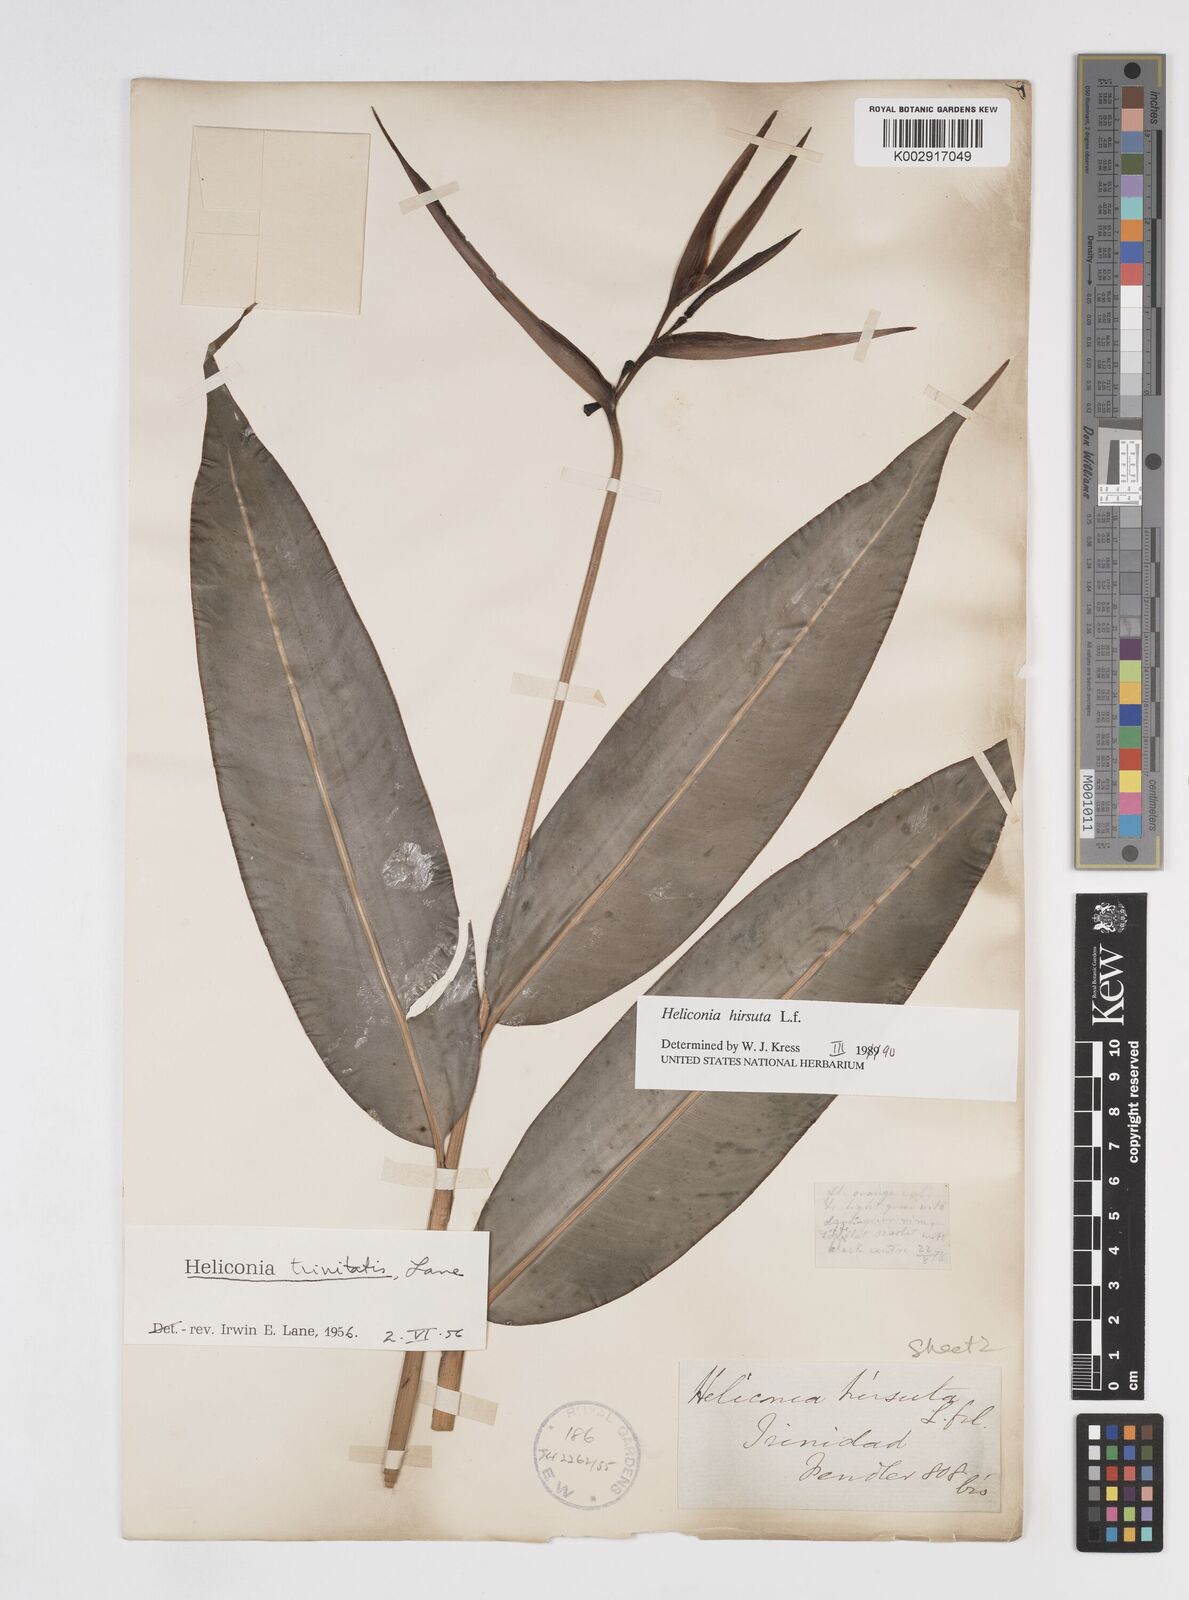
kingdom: Plantae
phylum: Tracheophyta
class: Liliopsida
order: Zingiberales
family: Heliconiaceae
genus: Heliconia
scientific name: Heliconia hirsuta
